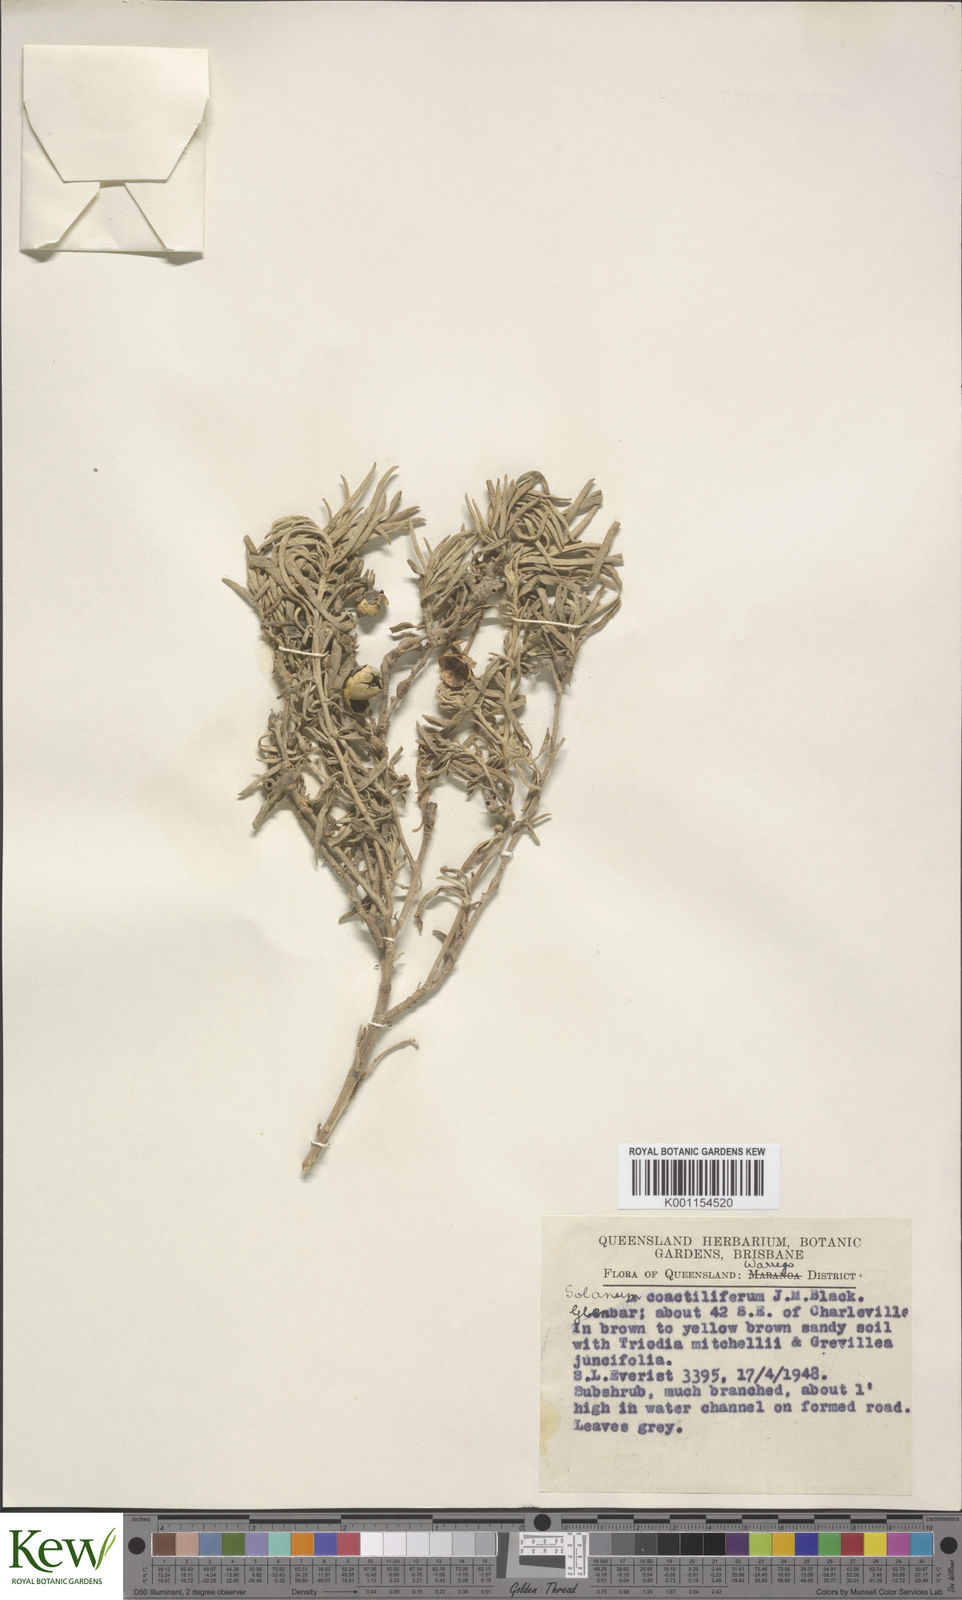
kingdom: Plantae
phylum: Tracheophyta
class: Magnoliopsida
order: Solanales
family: Solanaceae
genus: Solanum
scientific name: Solanum esuriale
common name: Wild tomato
